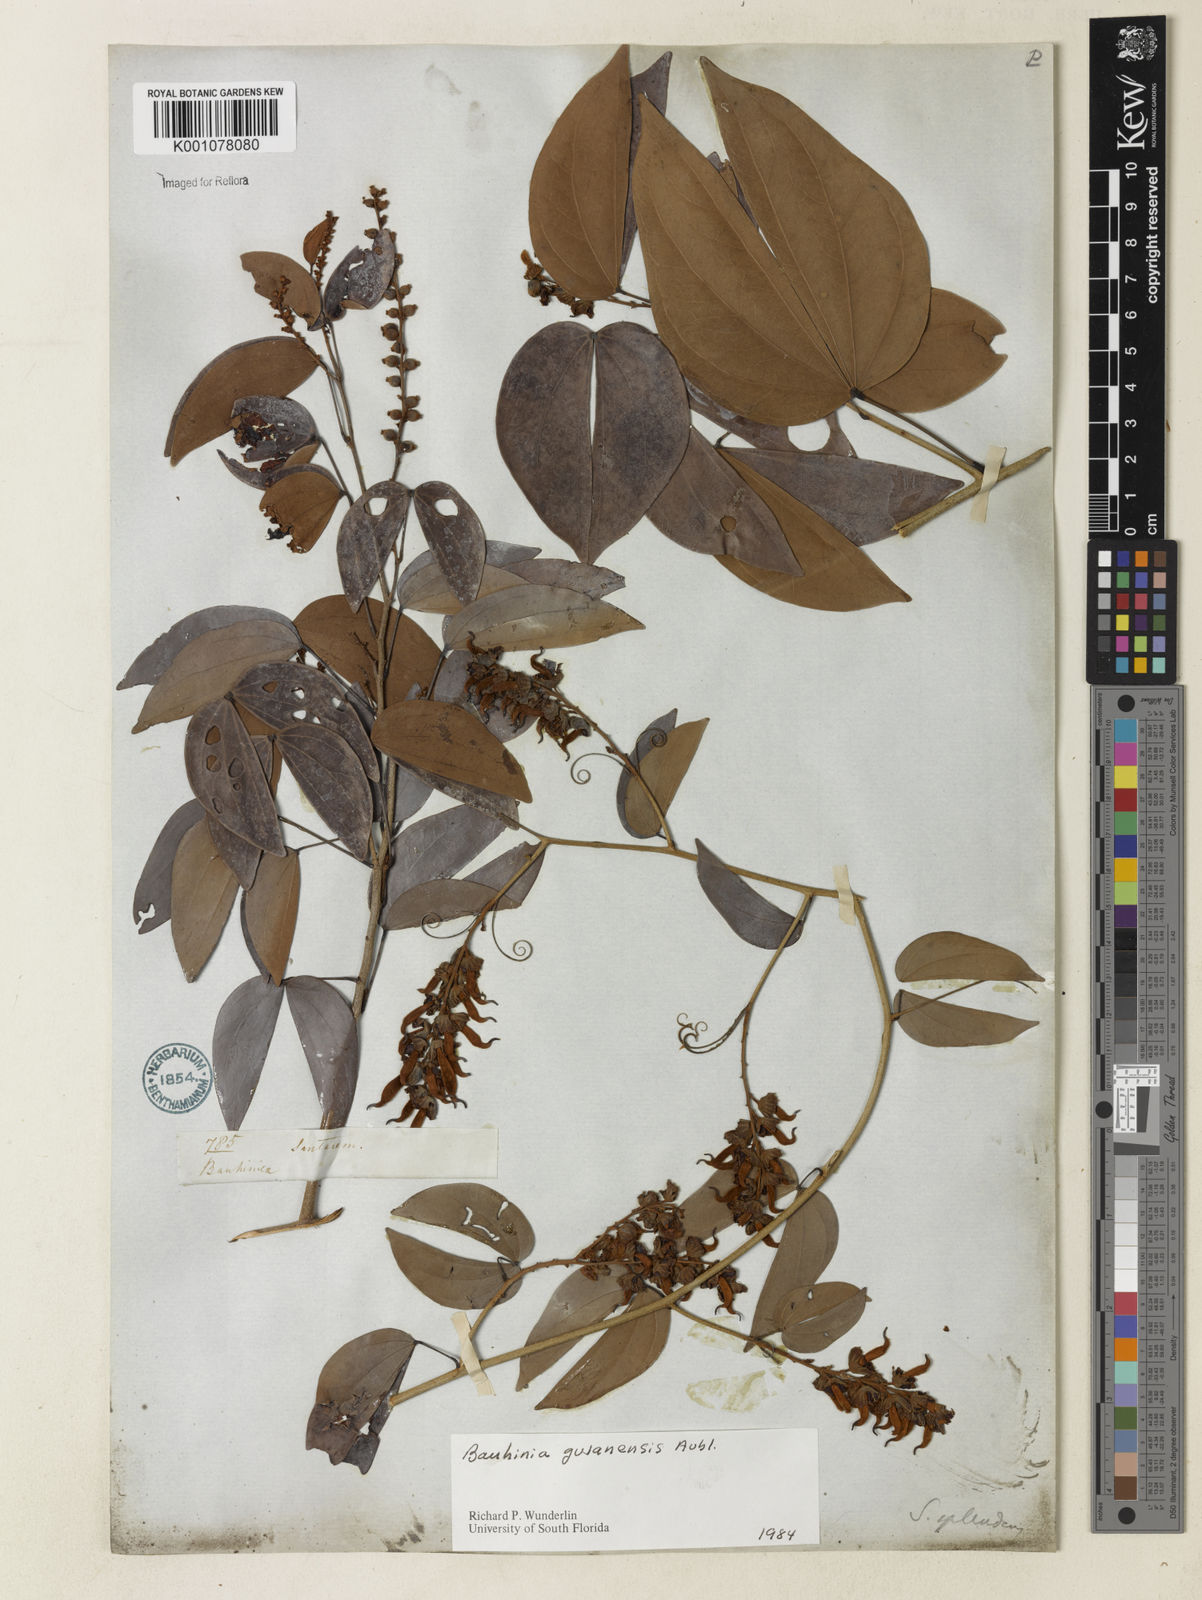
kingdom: Plantae
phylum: Tracheophyta
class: Magnoliopsida
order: Fabales
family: Fabaceae
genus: Schnella
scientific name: Schnella guianensis
